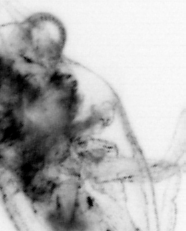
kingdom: Animalia
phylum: Chaetognatha
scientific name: Chaetognatha
